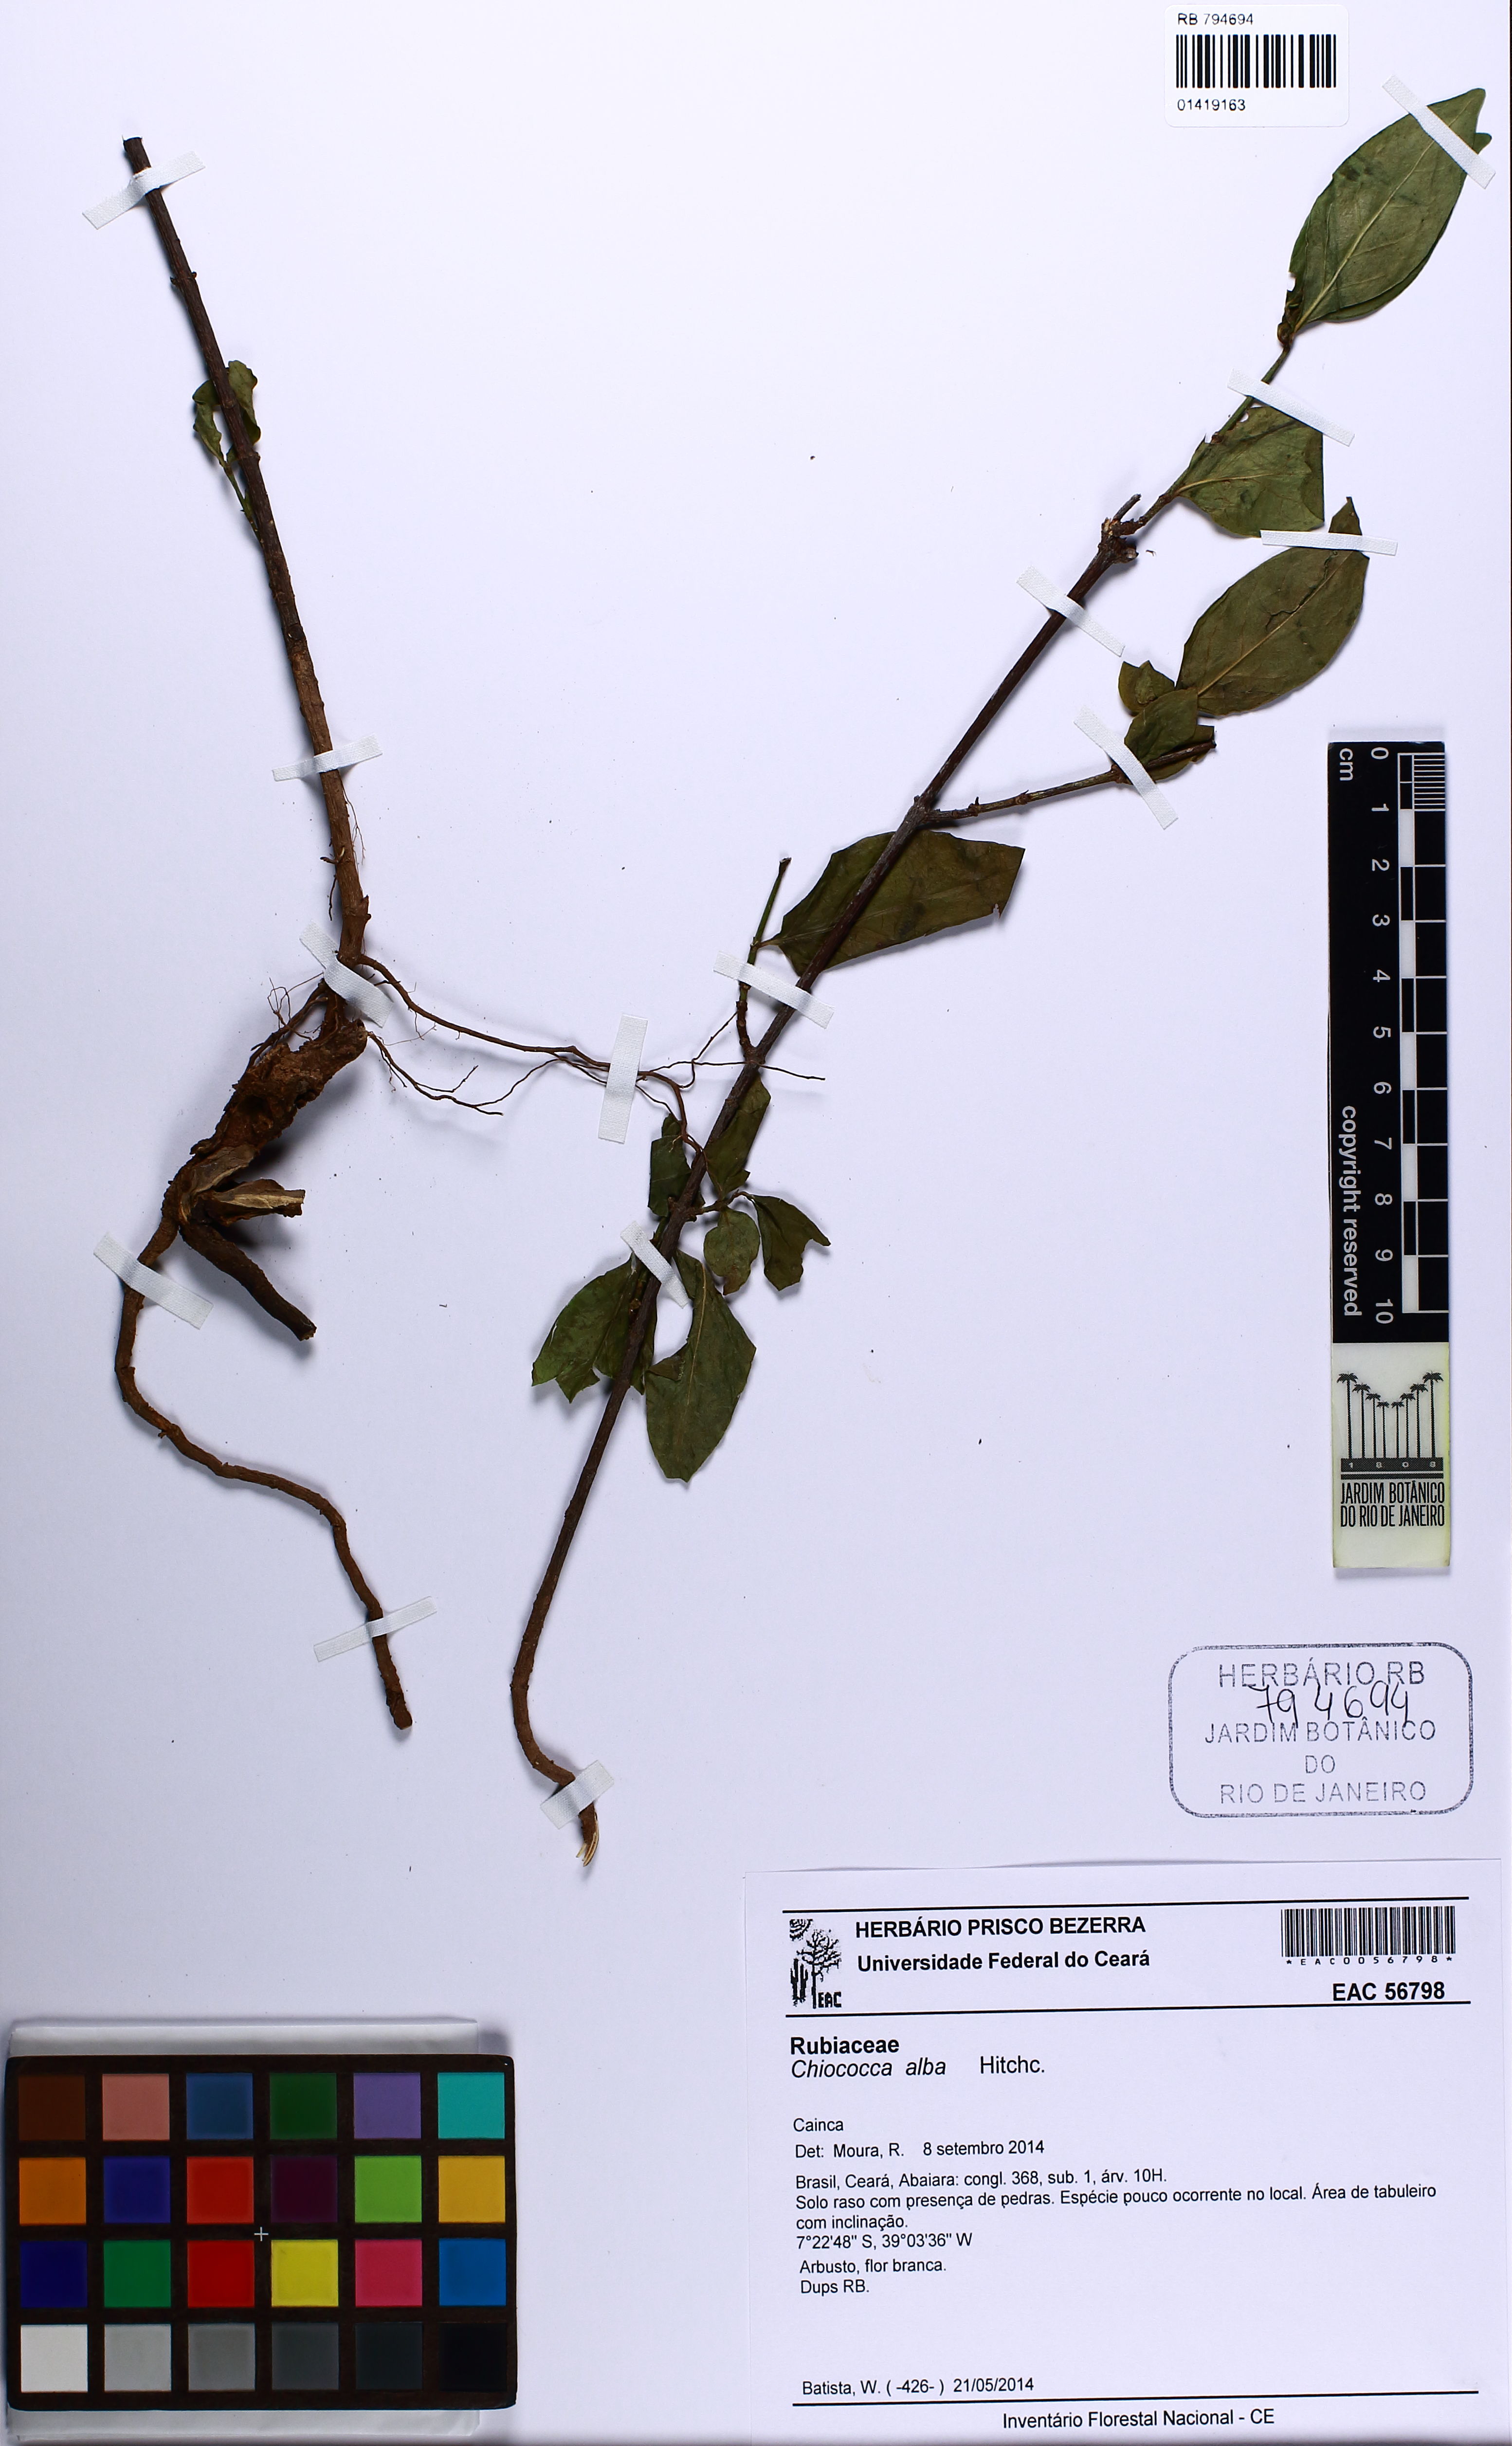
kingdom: Plantae
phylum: Tracheophyta
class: Magnoliopsida
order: Gentianales
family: Rubiaceae
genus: Chiococca
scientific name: Chiococca alba
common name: Snowberry
